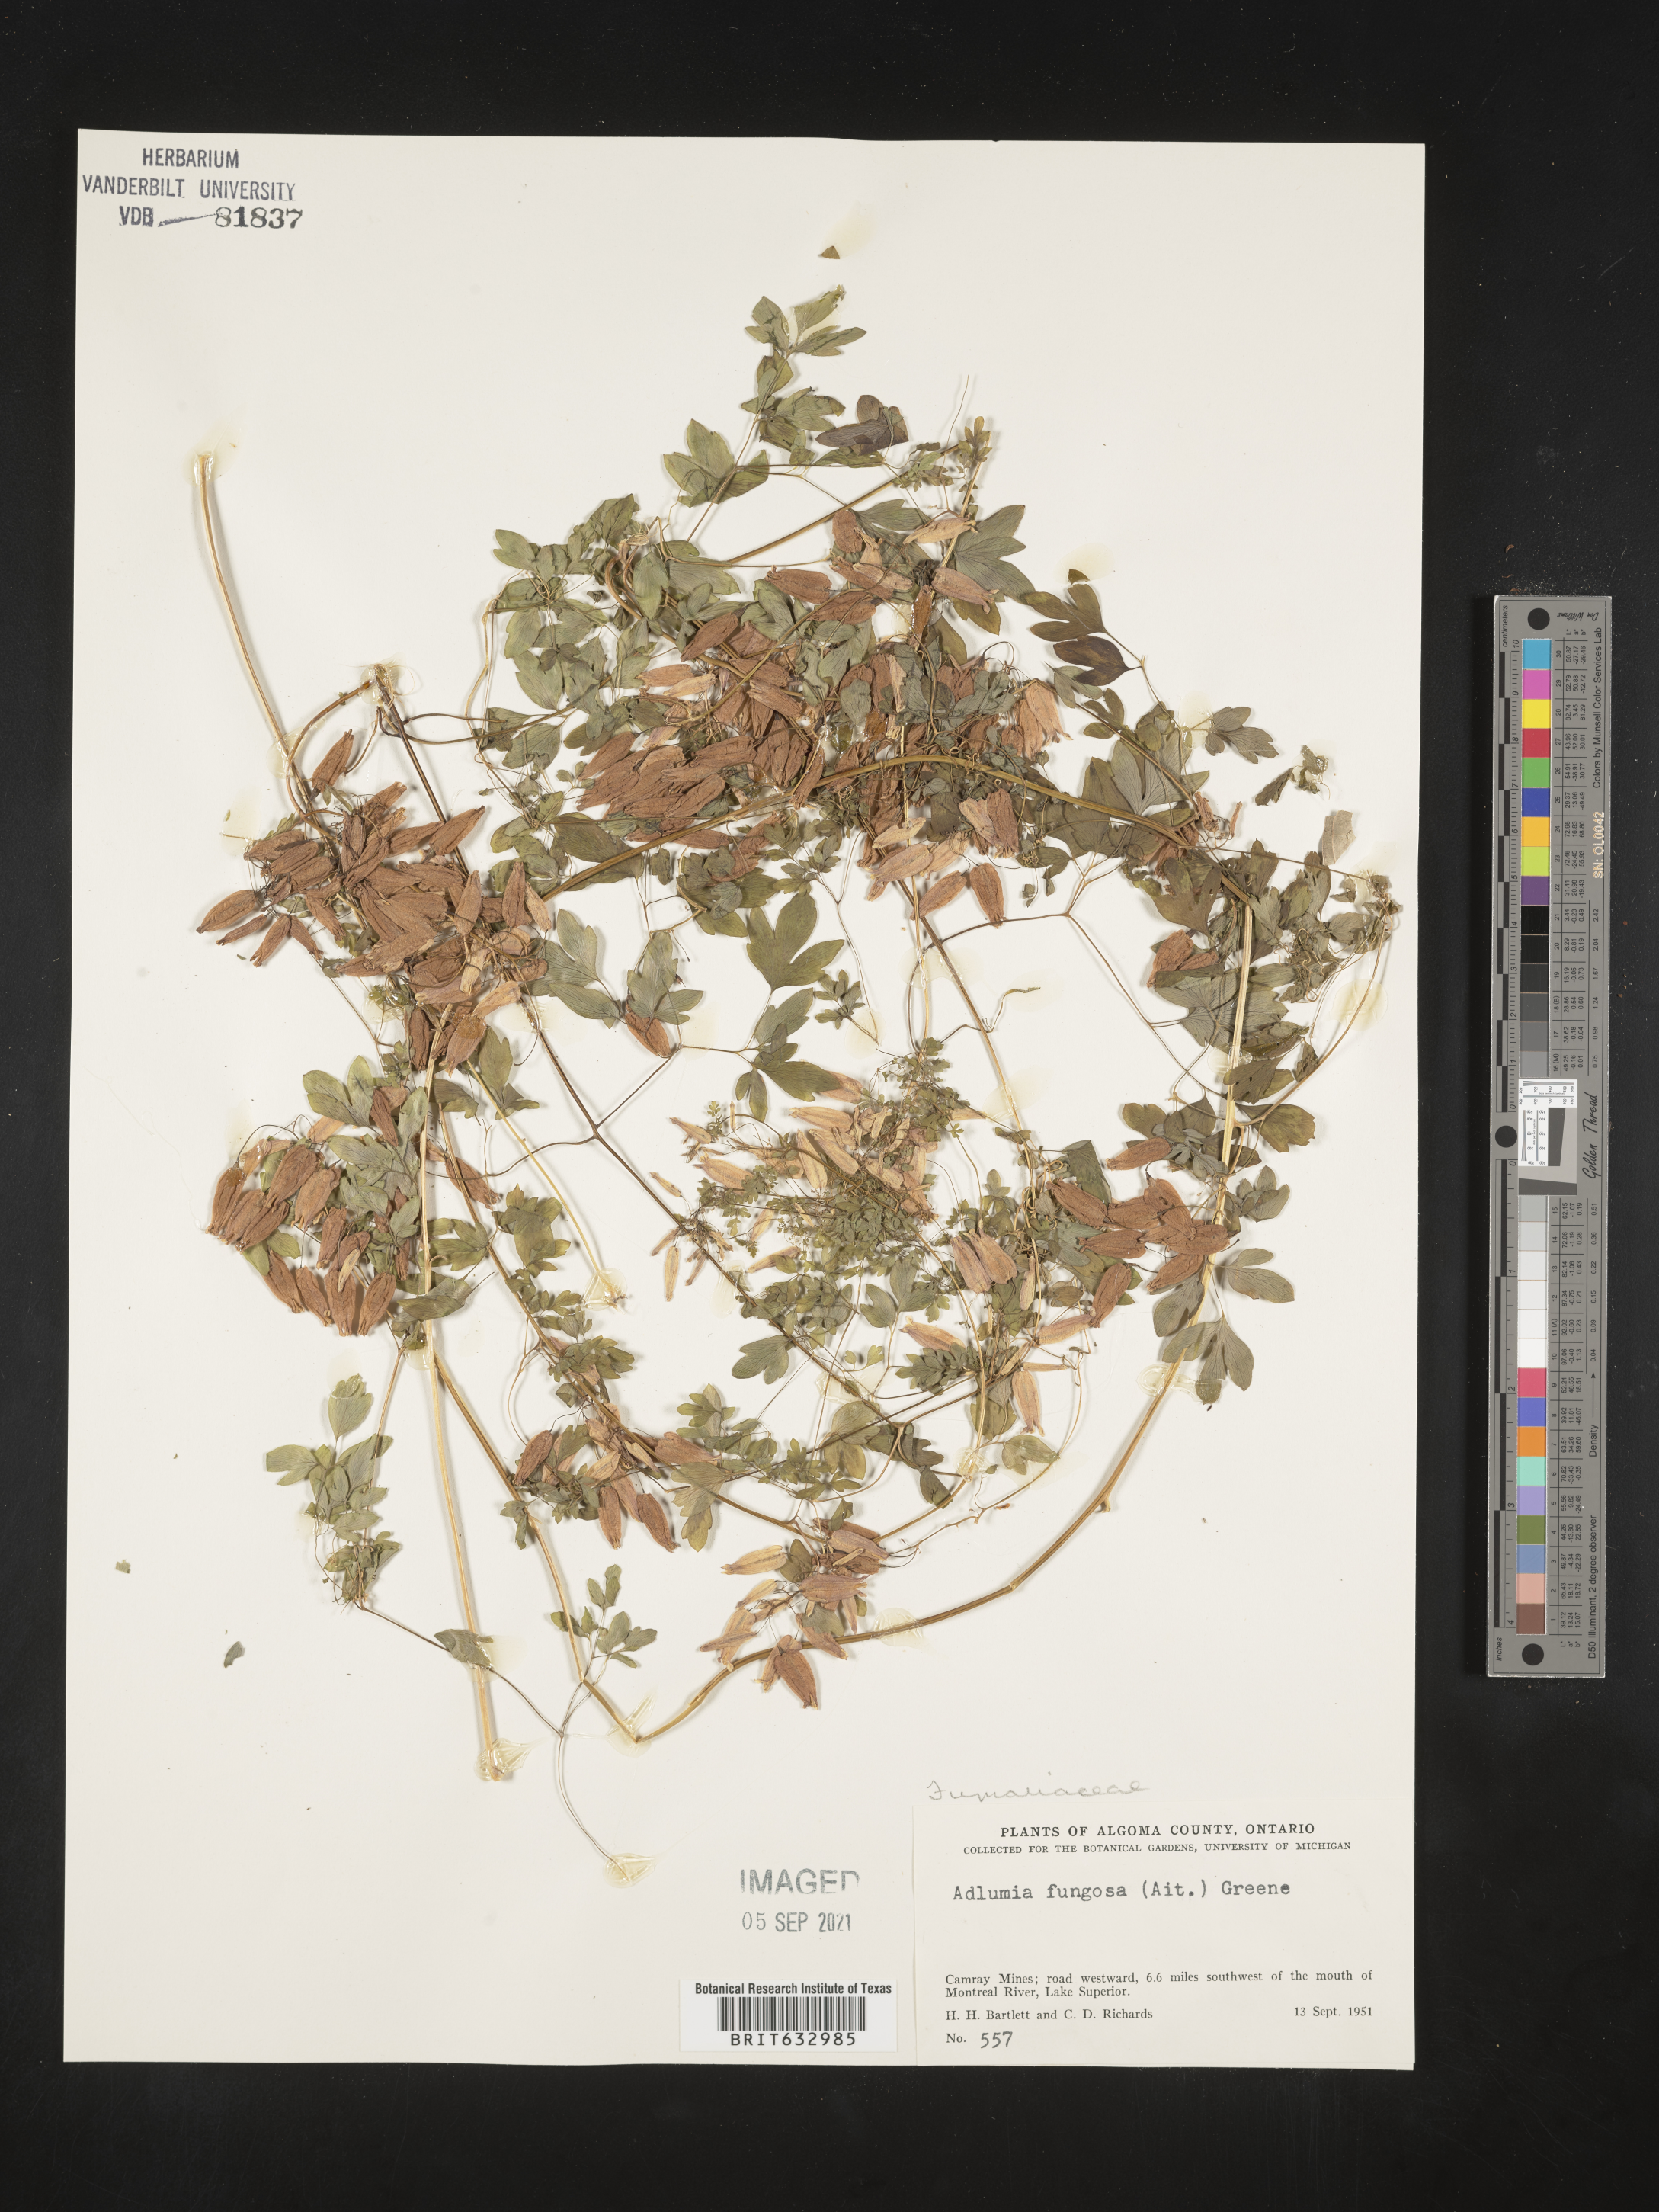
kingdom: Plantae
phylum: Tracheophyta
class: Magnoliopsida
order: Ranunculales
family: Papaveraceae
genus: Adlumia
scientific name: Adlumia
